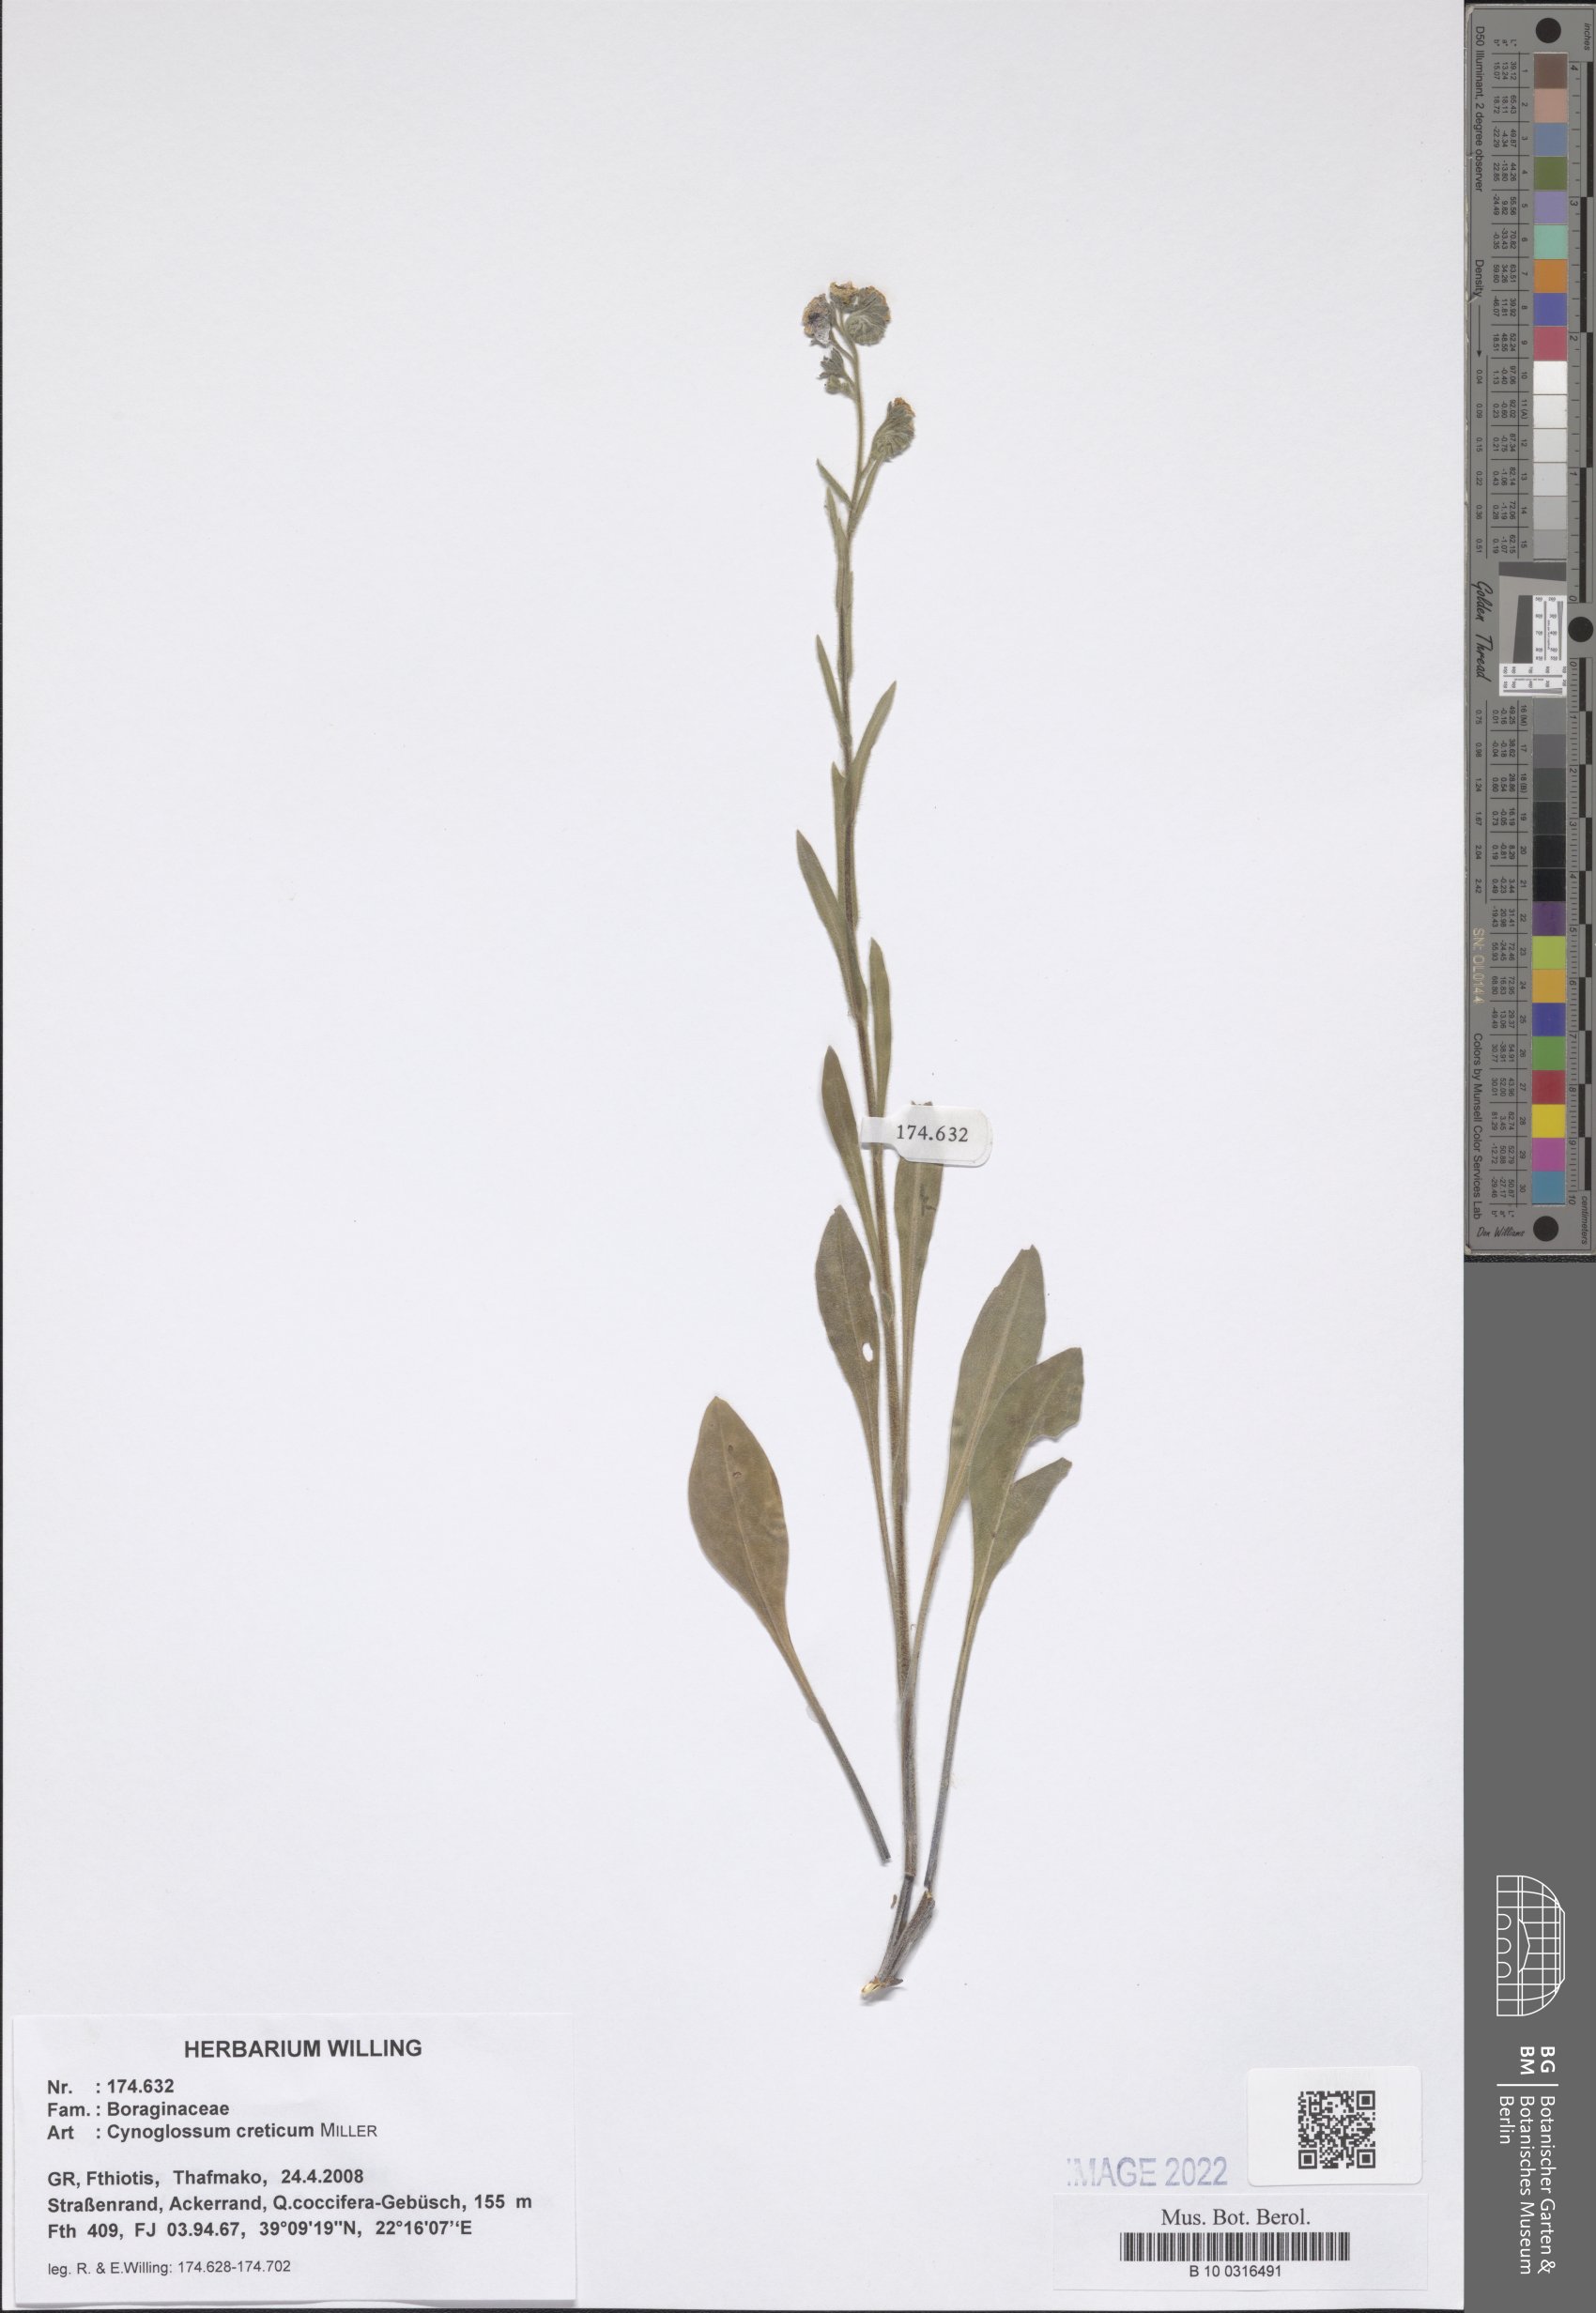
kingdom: Plantae
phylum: Tracheophyta
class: Magnoliopsida
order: Boraginales
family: Boraginaceae
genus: Cynoglossum
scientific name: Cynoglossum creticum
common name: Blue hound's tongue
